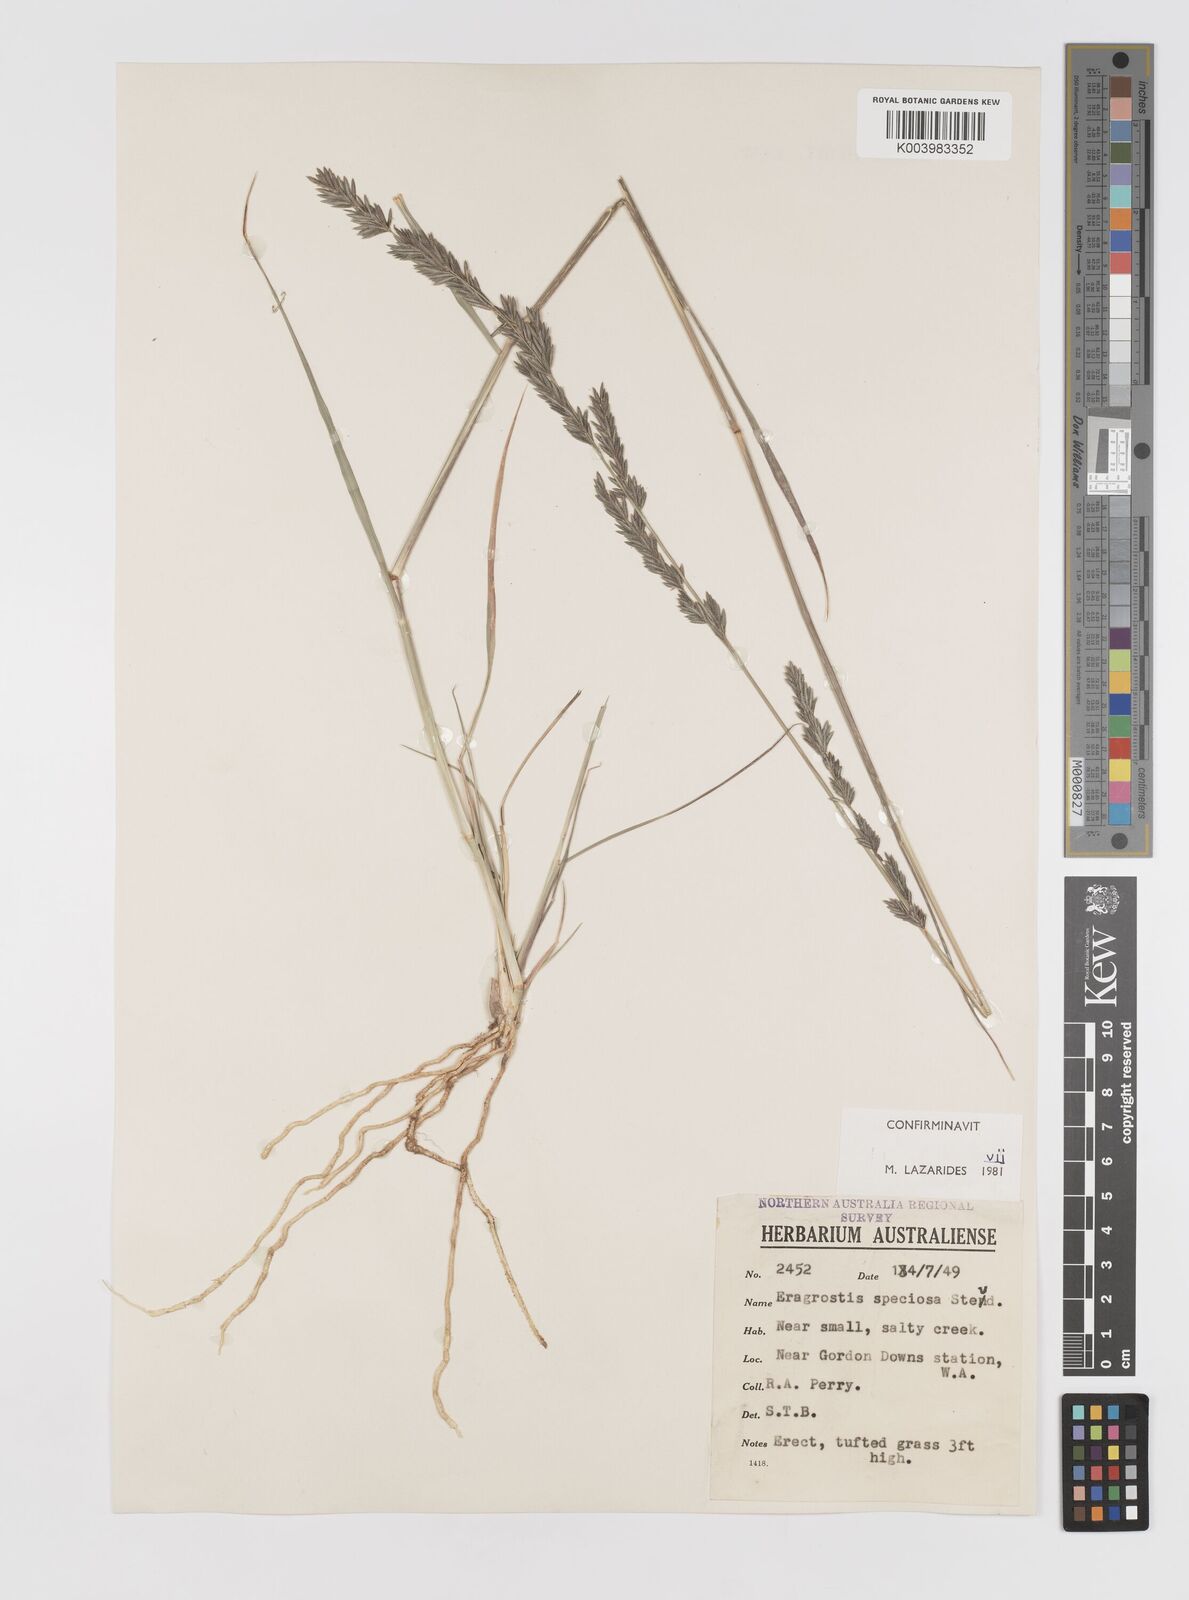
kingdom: Plantae
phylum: Tracheophyta
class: Liliopsida
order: Poales
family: Poaceae
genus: Eragrostis
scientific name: Eragrostis speciosa
